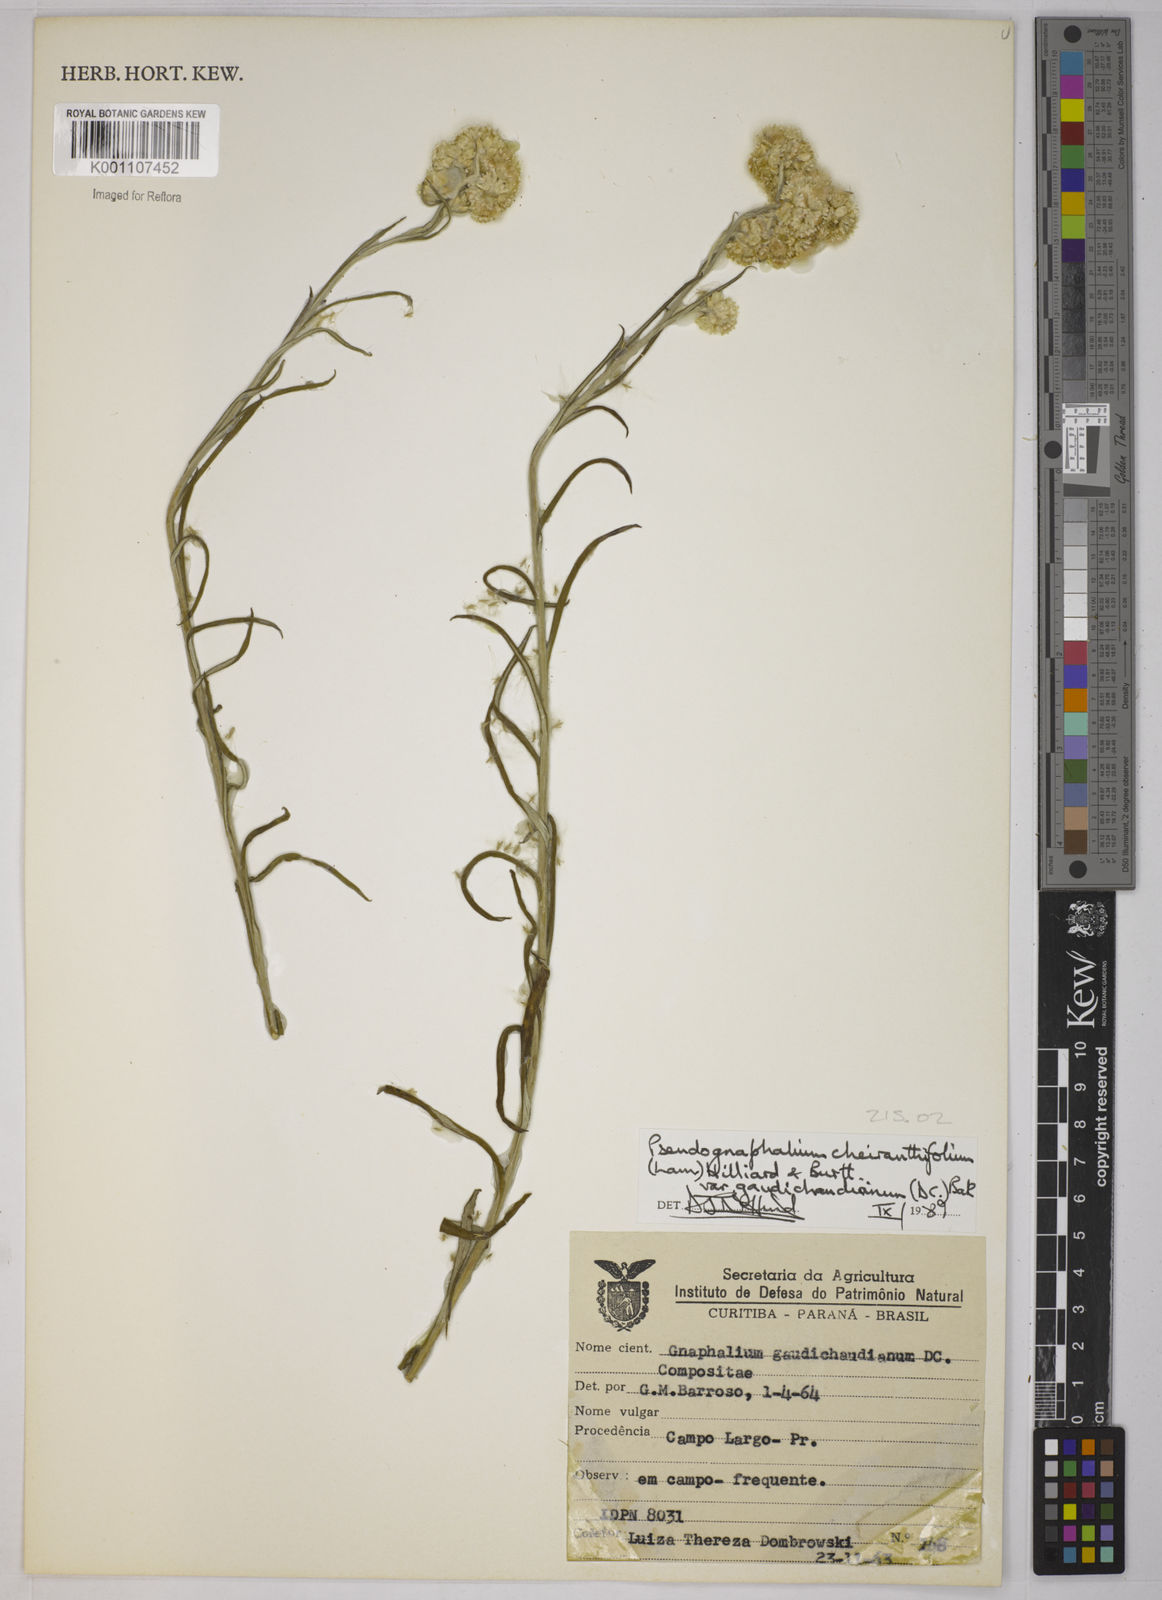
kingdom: Plantae
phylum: Tracheophyta
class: Magnoliopsida
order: Asterales
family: Asteraceae
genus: Pseudognaphalium
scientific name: Pseudognaphalium cheiranthifolium
